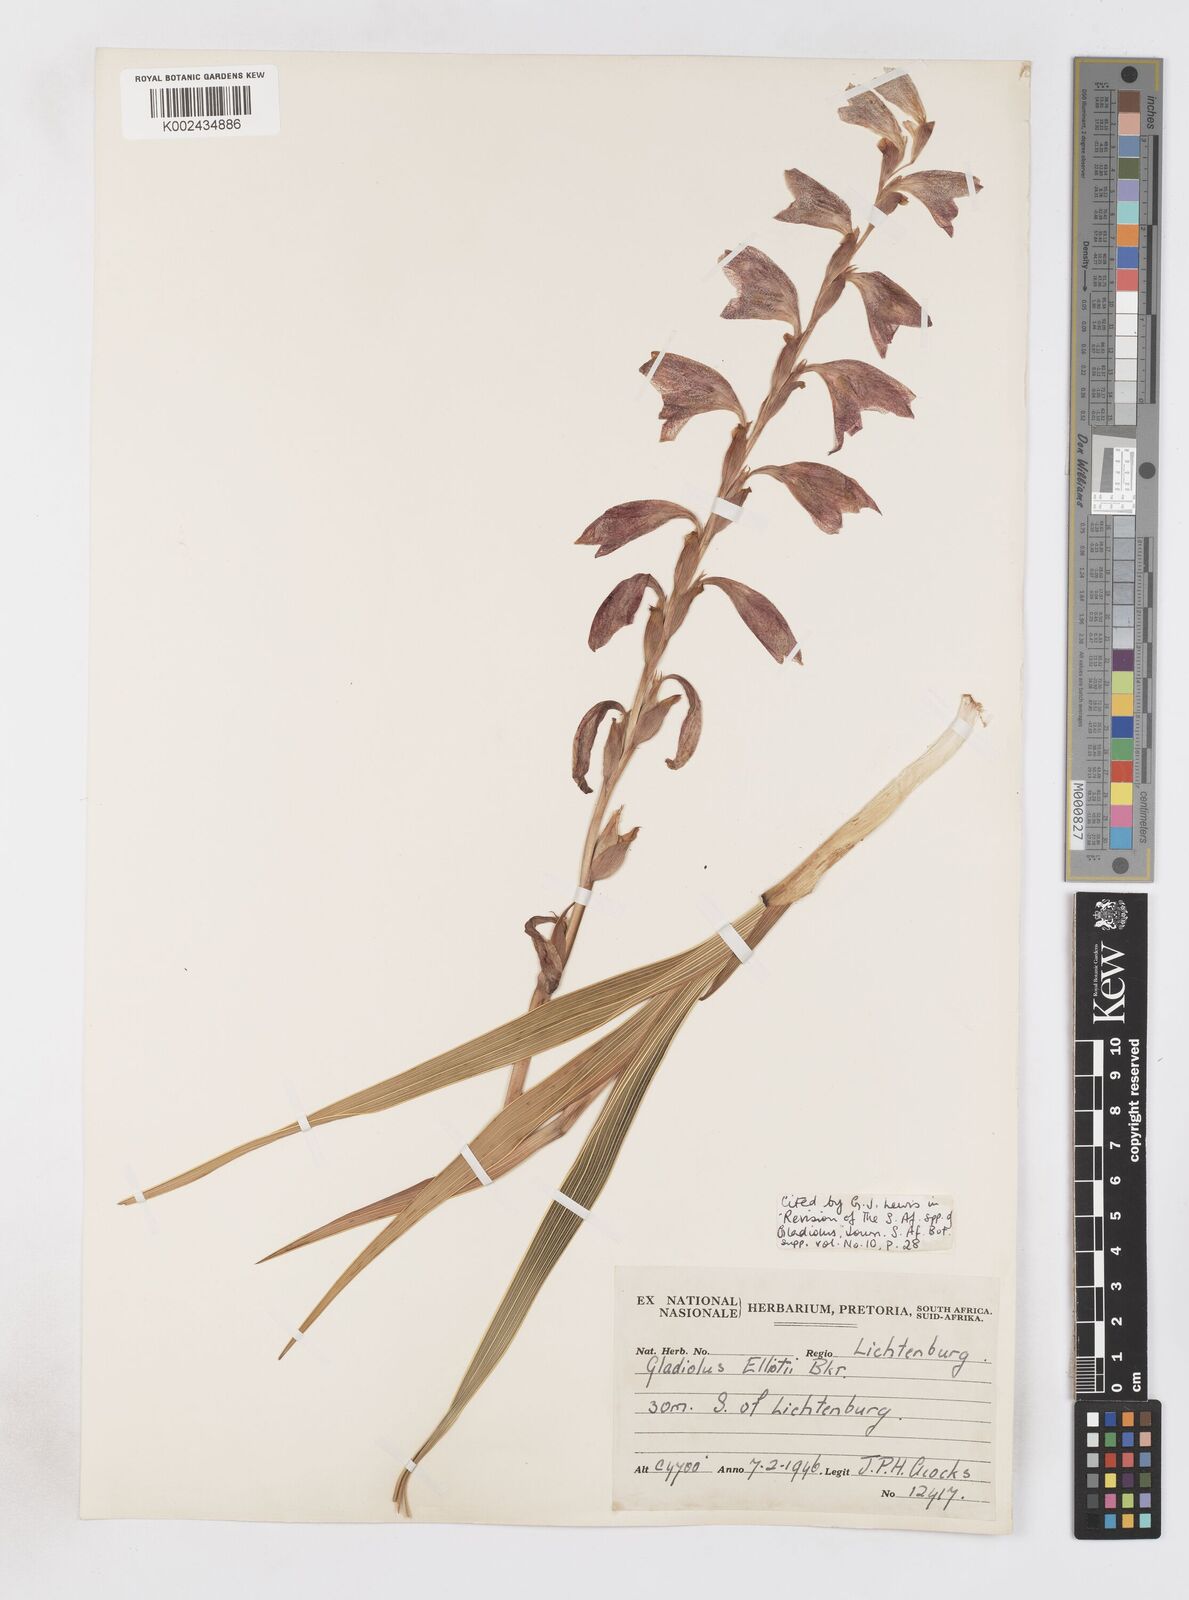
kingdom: Plantae
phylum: Tracheophyta
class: Liliopsida
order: Asparagales
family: Iridaceae
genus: Gladiolus
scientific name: Gladiolus elliotii
